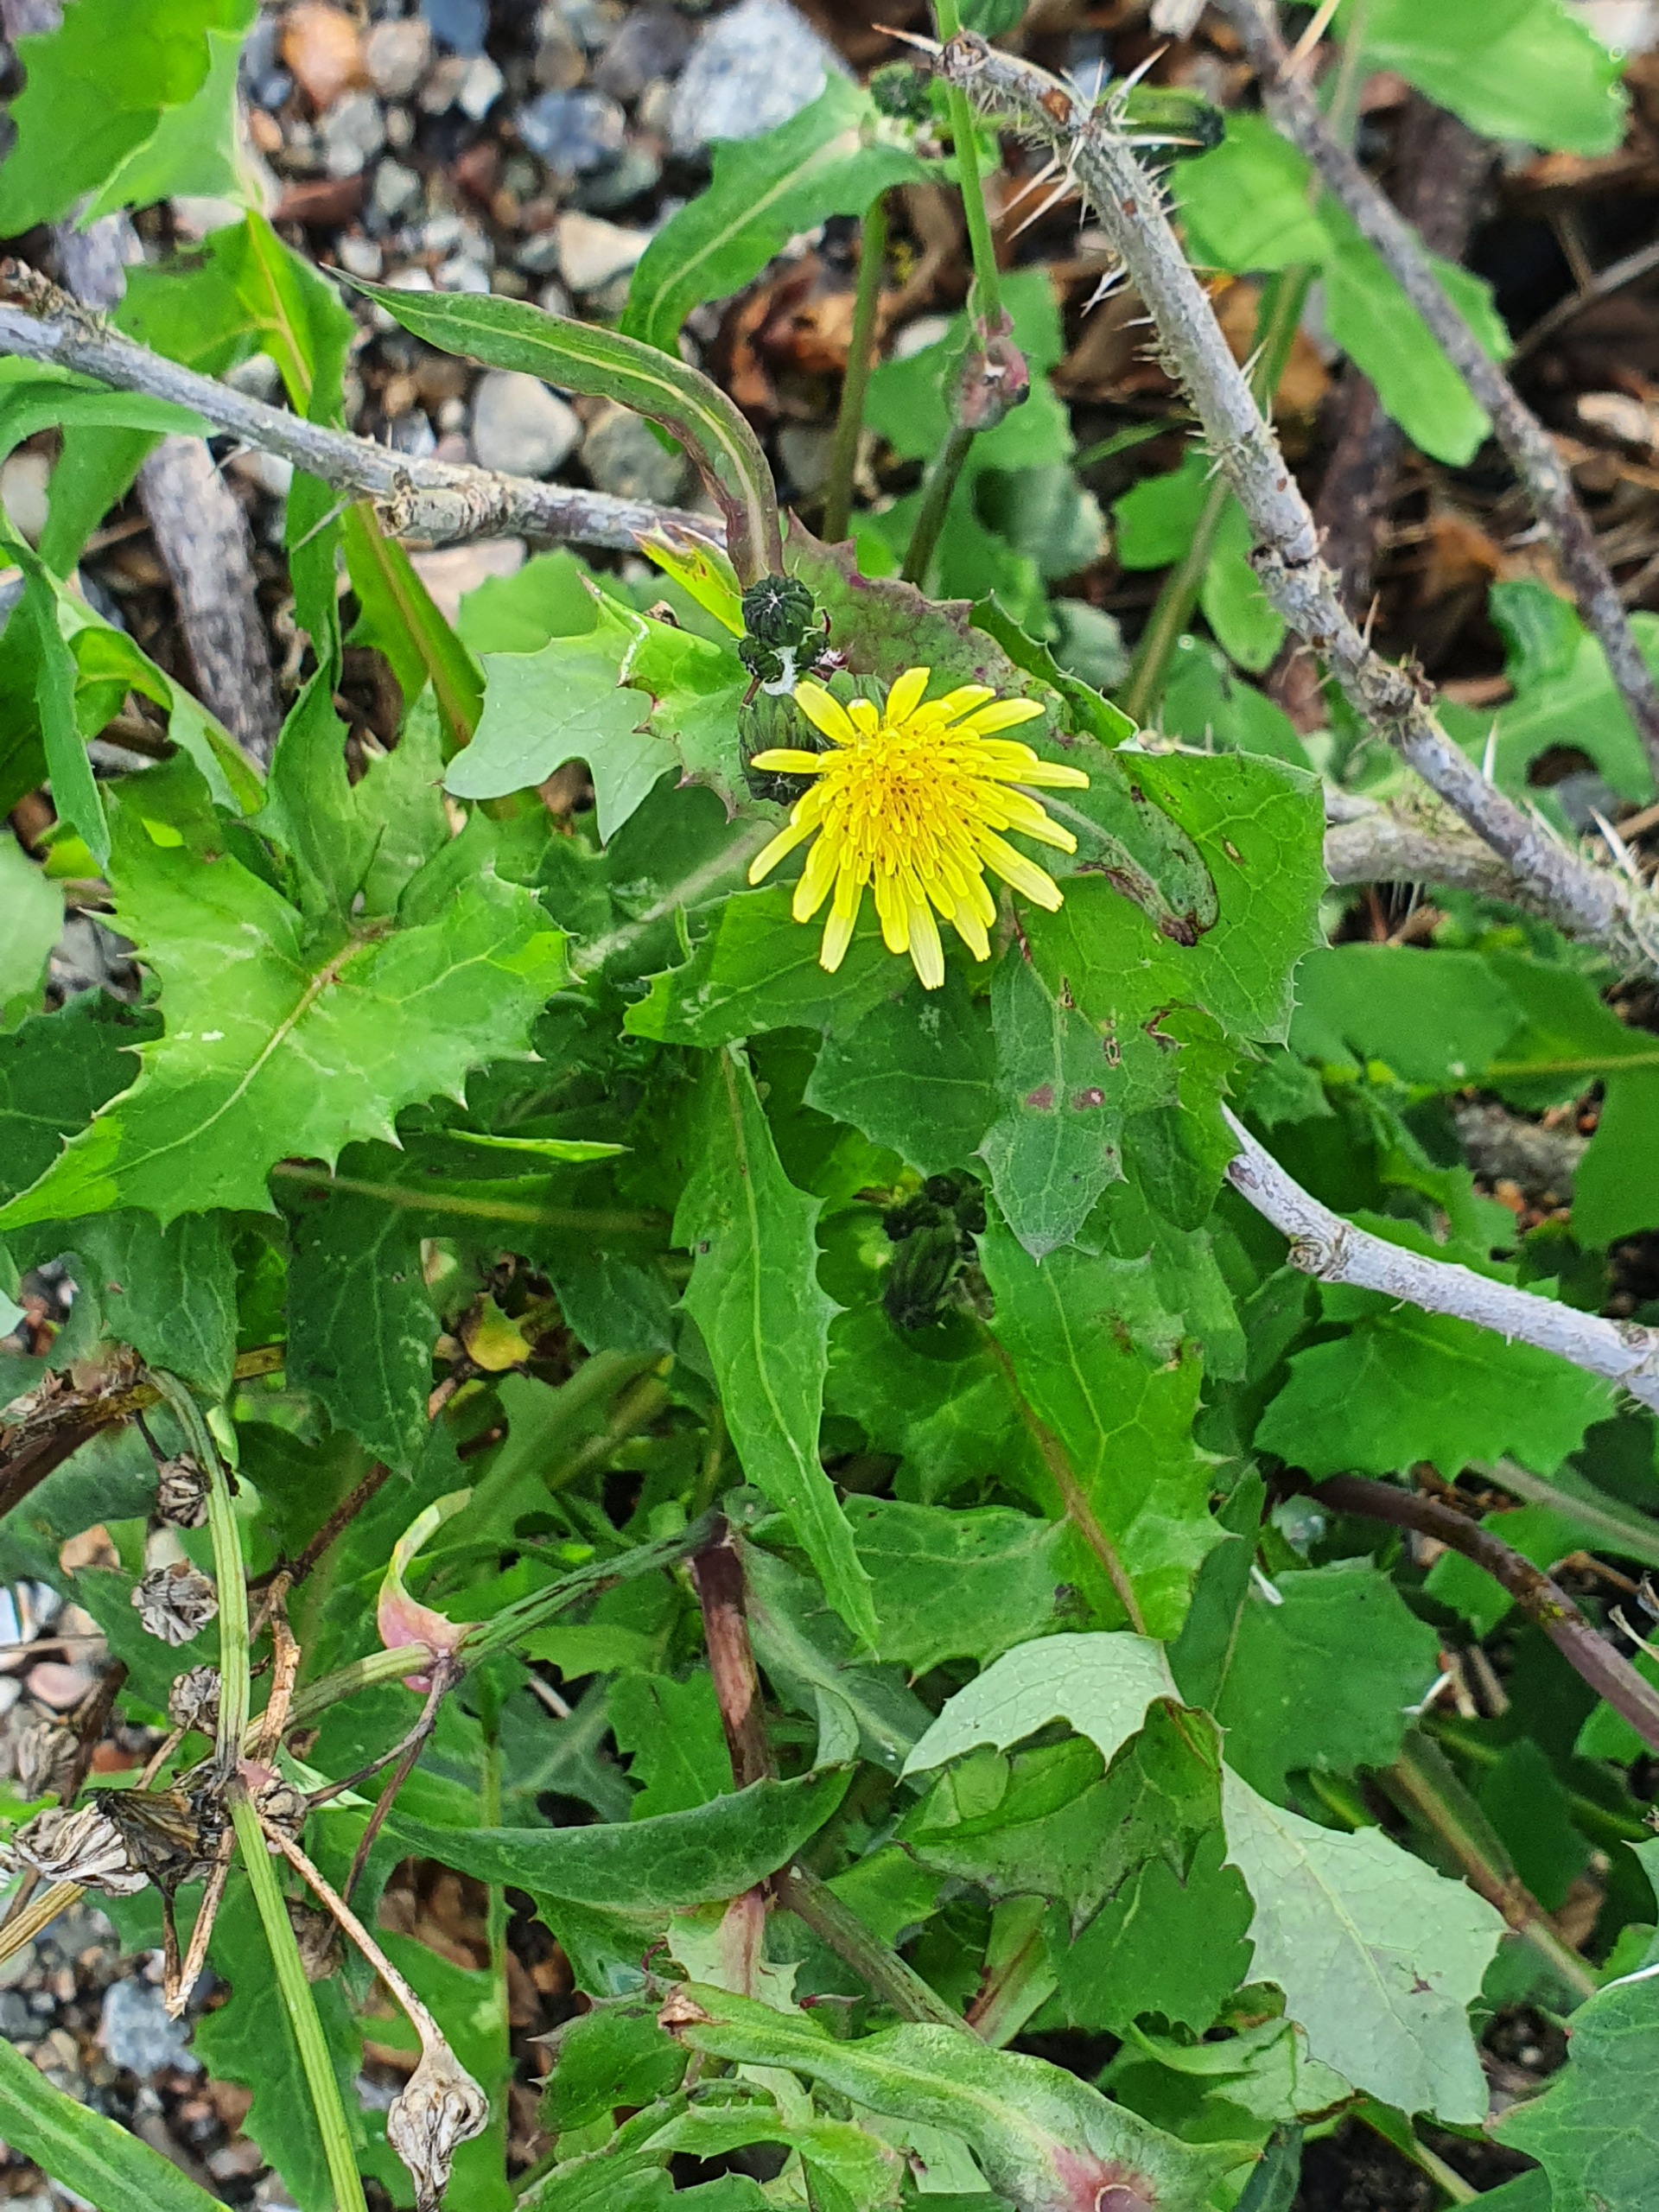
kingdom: Plantae
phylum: Tracheophyta
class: Magnoliopsida
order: Asterales
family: Asteraceae
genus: Sonchus
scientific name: Sonchus oleraceus
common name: Almindelig svinemælk
